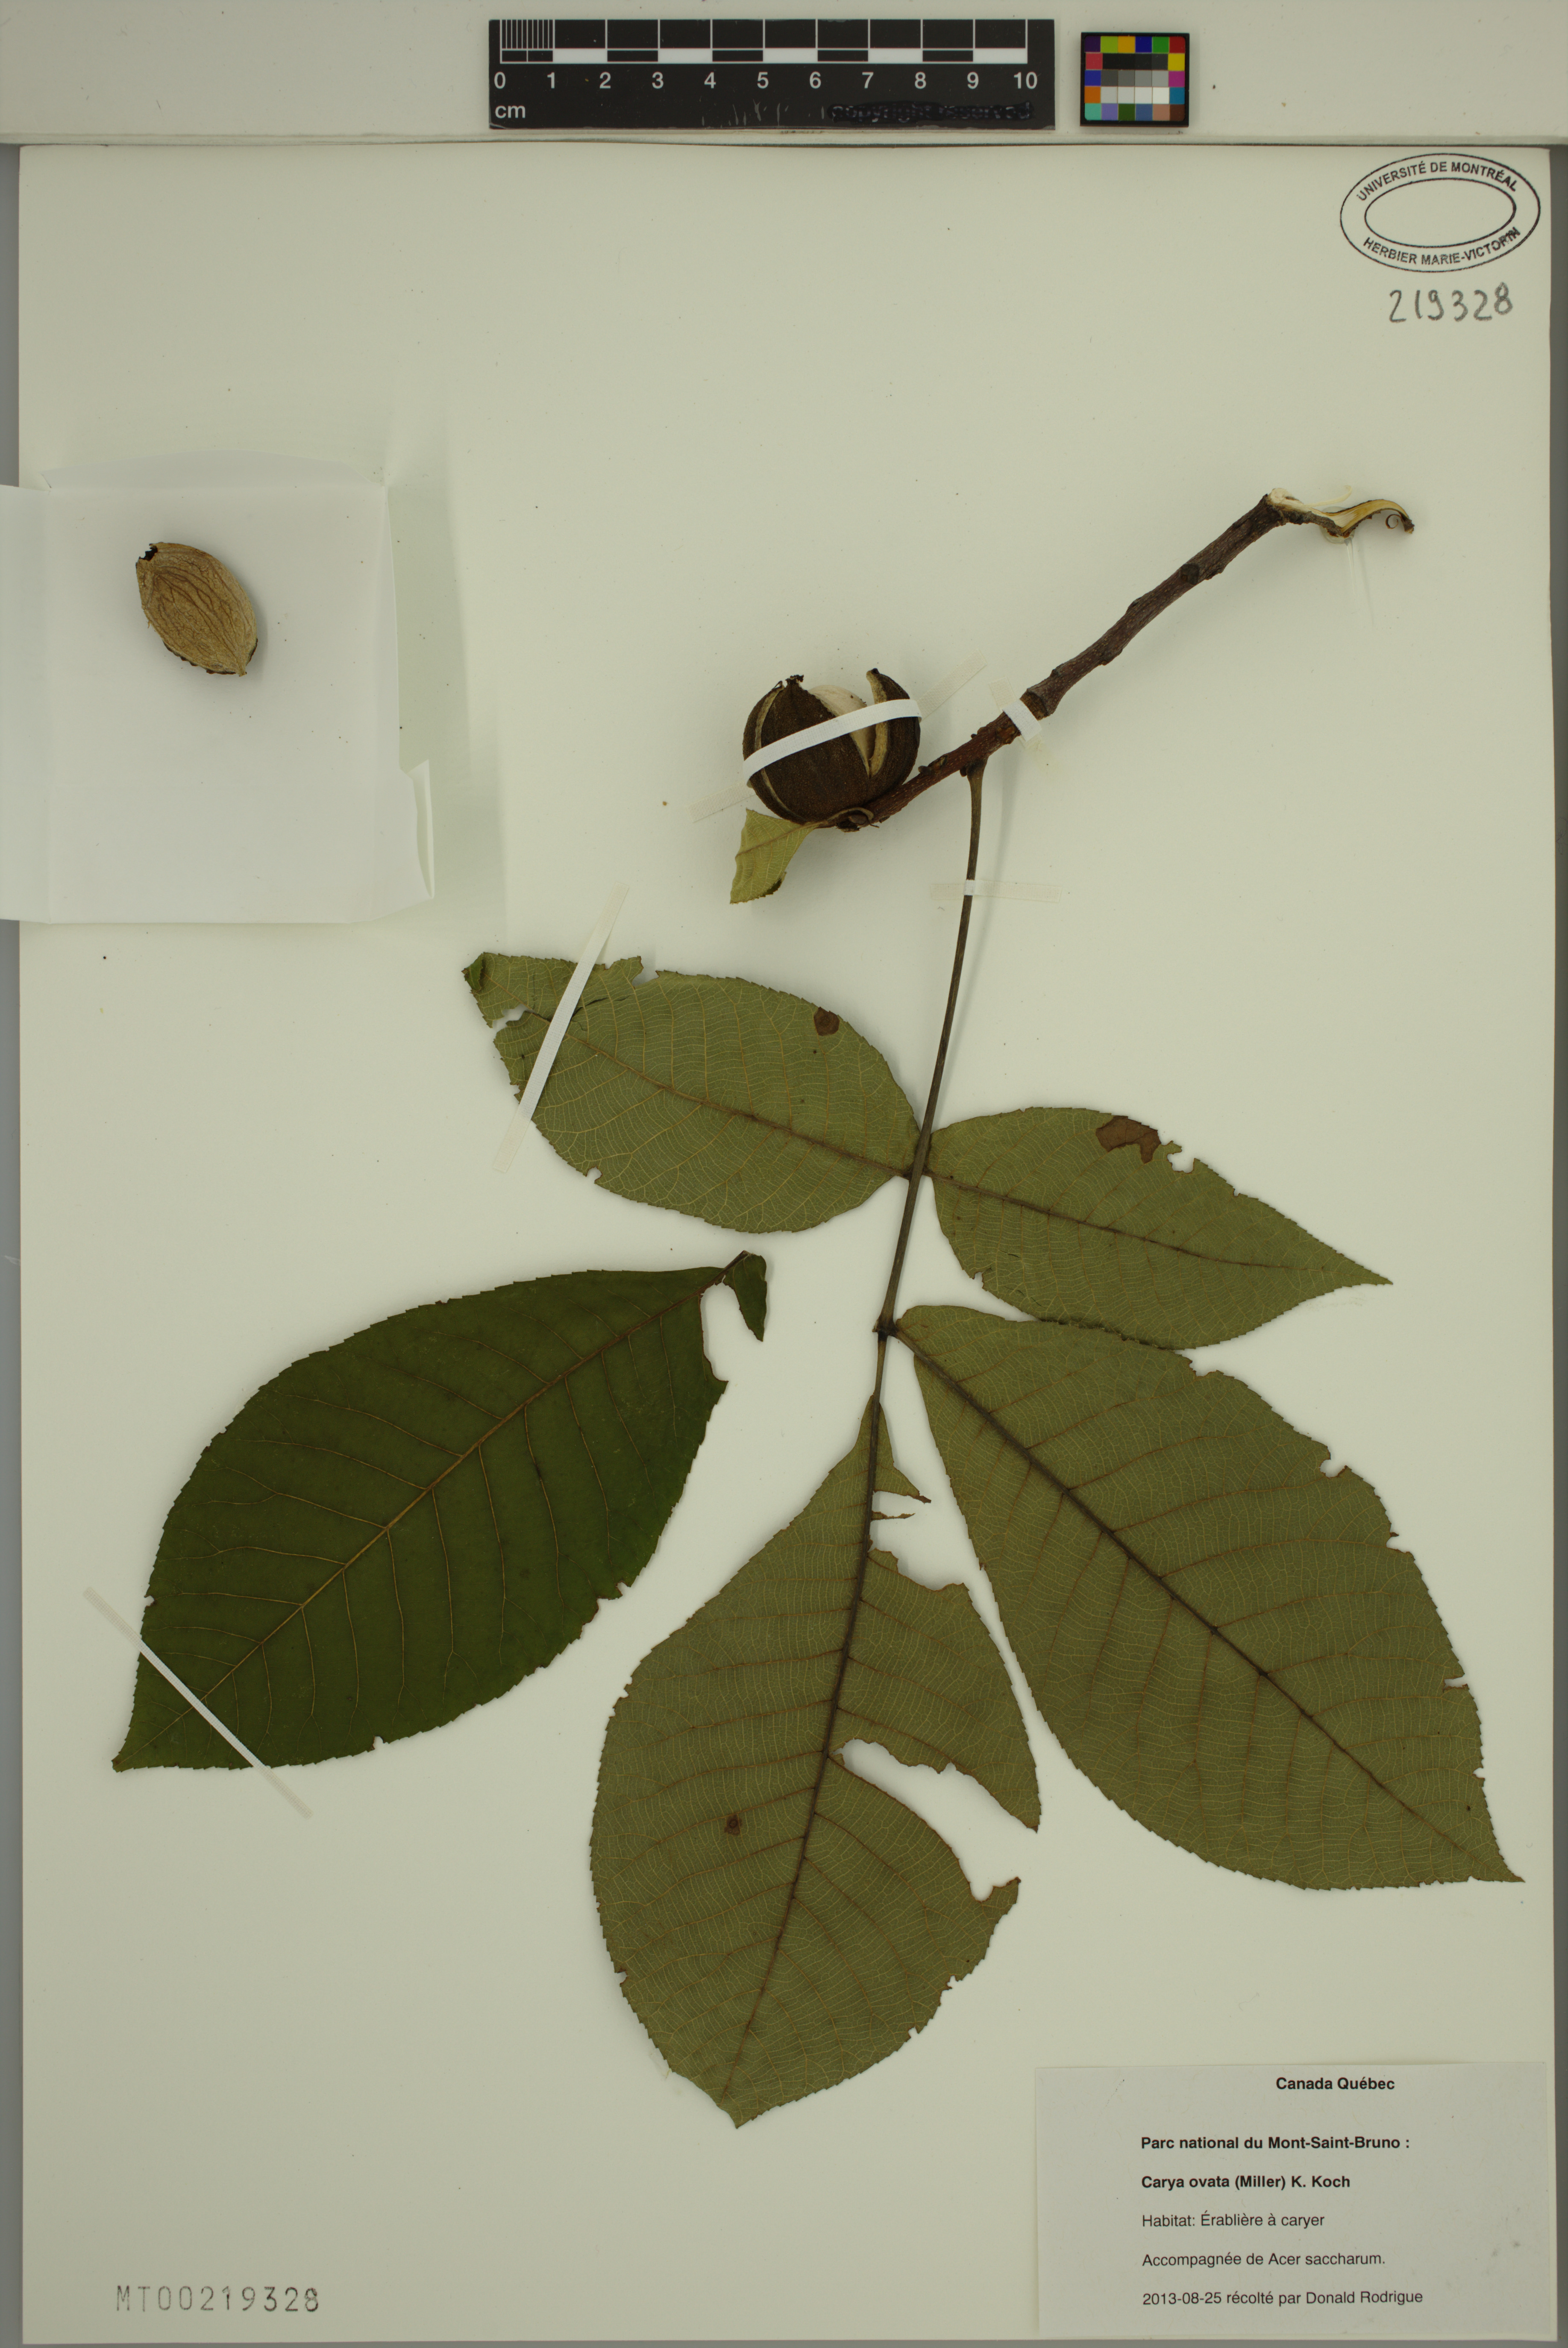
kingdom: Plantae
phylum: Tracheophyta
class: Magnoliopsida
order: Fagales
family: Juglandaceae
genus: Carya
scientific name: Carya ovata
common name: Shagbark hickory
